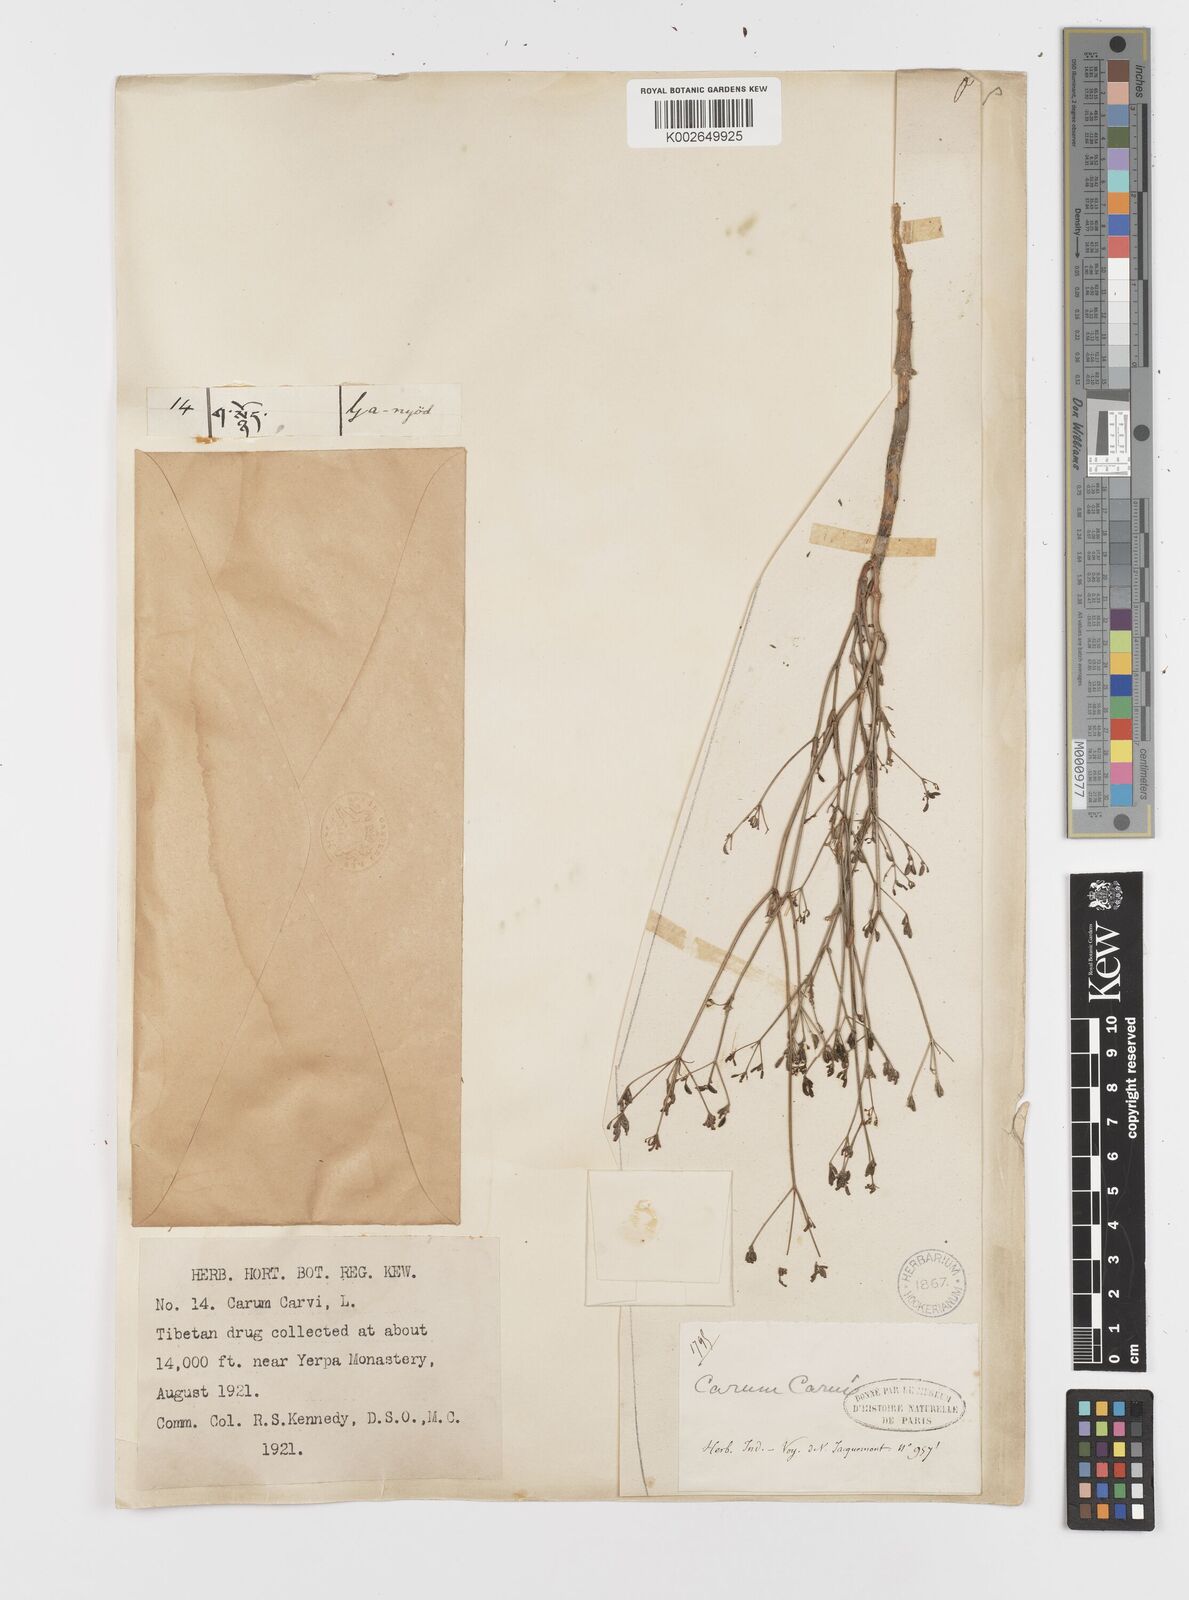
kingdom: Plantae
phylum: Tracheophyta
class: Magnoliopsida
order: Apiales
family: Apiaceae
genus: Carum
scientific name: Carum carvi
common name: Caraway
